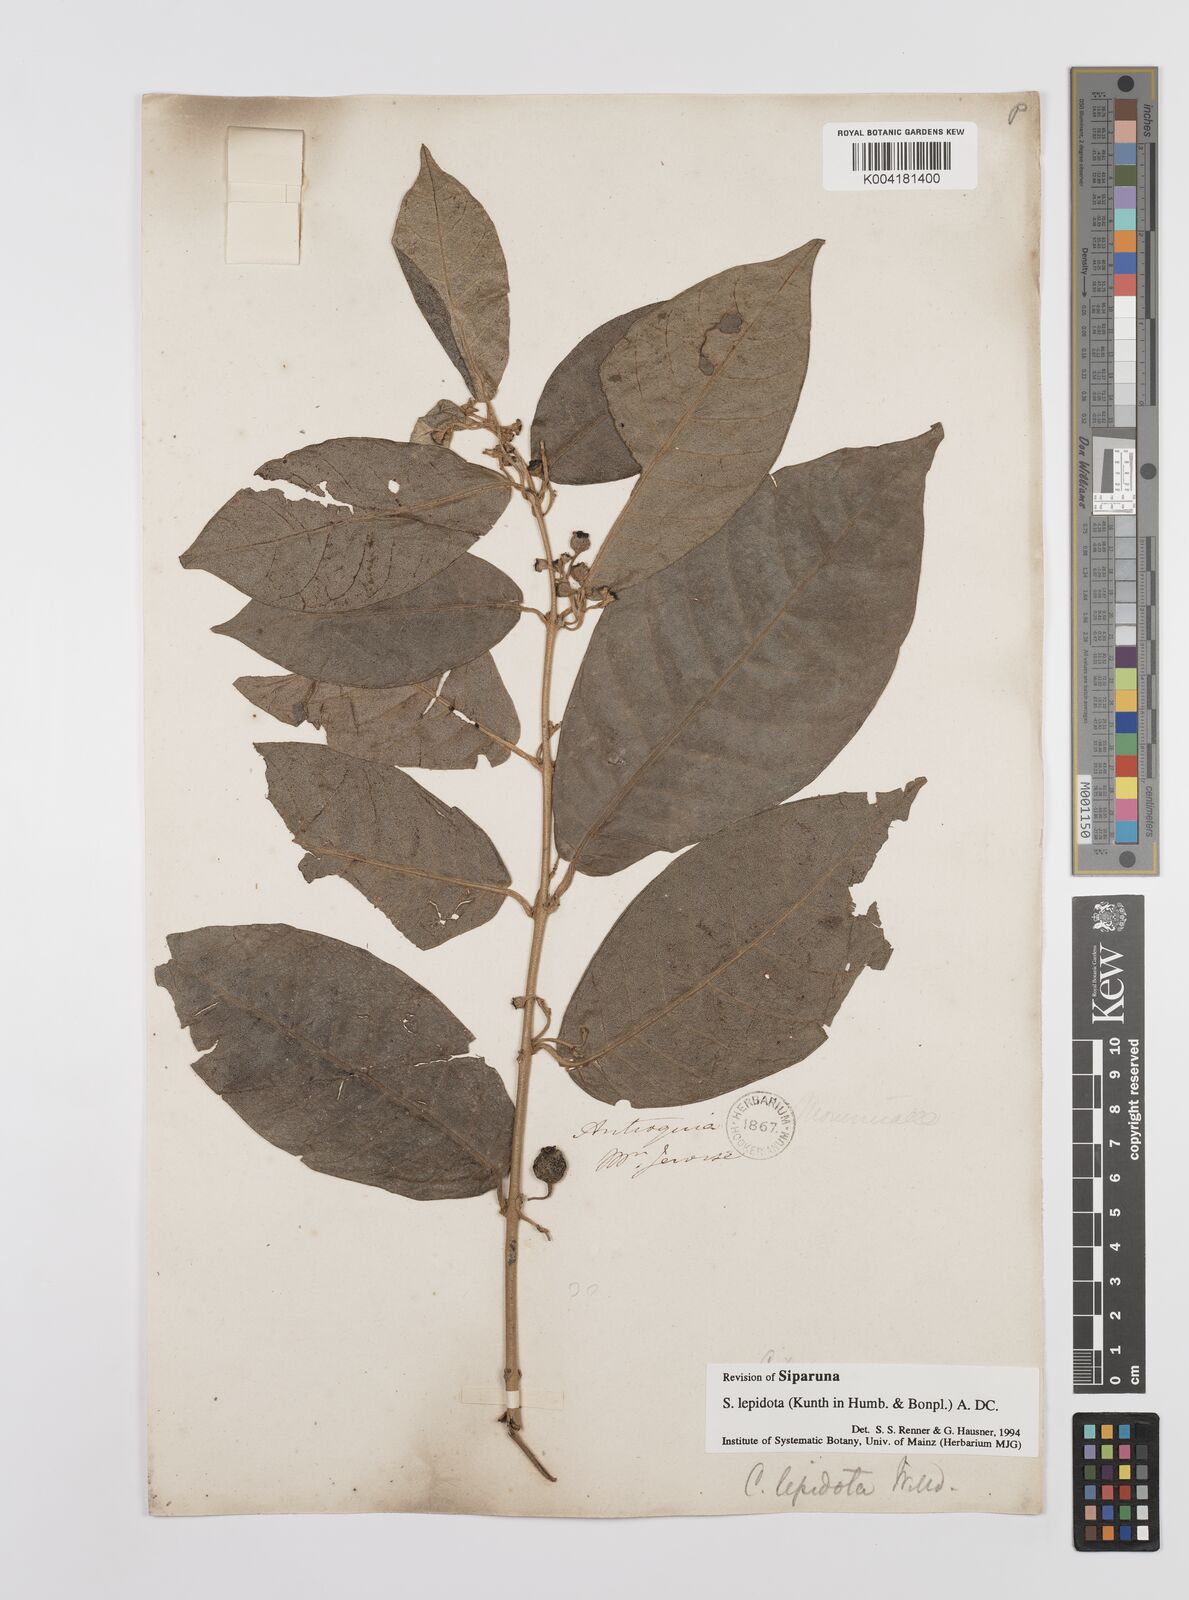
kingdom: Plantae
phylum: Tracheophyta
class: Magnoliopsida
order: Laurales
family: Siparunaceae
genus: Siparuna
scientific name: Siparuna lepidota
